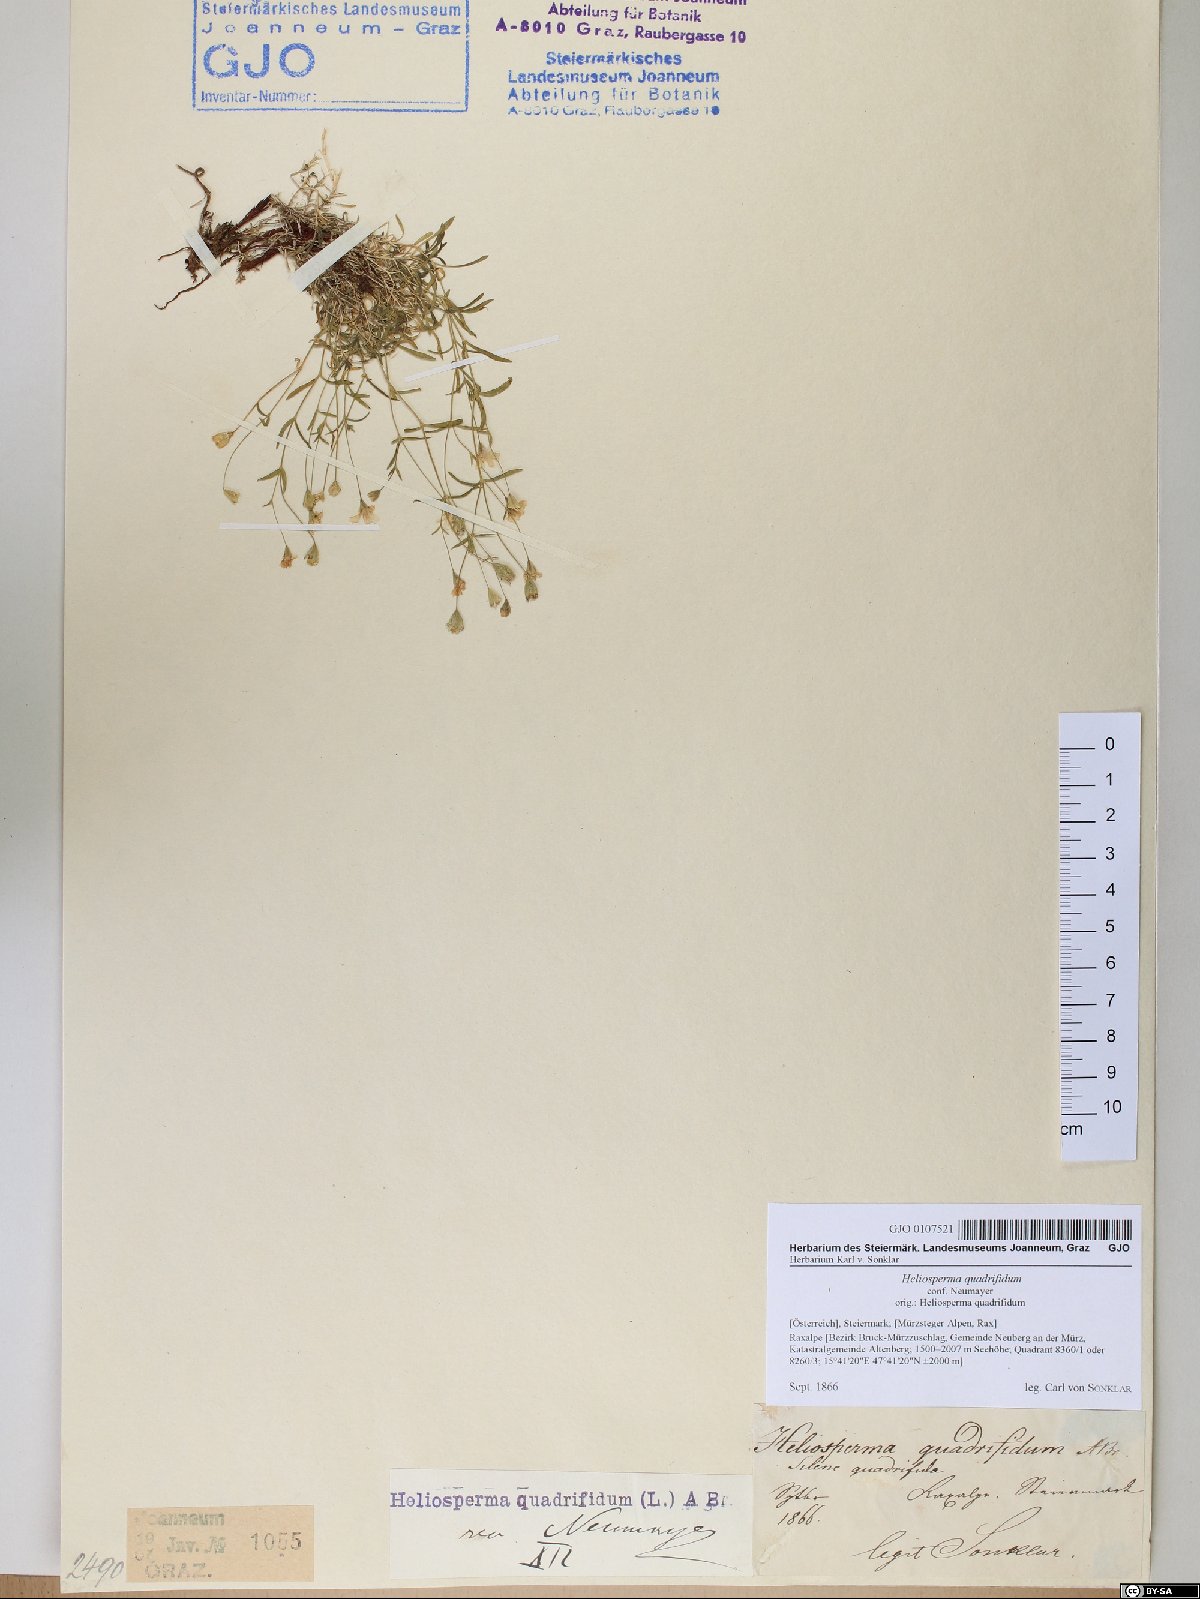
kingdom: Plantae
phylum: Tracheophyta
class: Magnoliopsida
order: Caryophyllales
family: Caryophyllaceae
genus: Heliosperma
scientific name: Heliosperma alpestre
